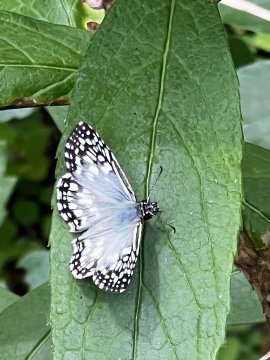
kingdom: Animalia
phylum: Arthropoda
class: Insecta
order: Lepidoptera
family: Hesperiidae
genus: Pyrgus
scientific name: Pyrgus oileus
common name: Tropical Checkered-Skipper
